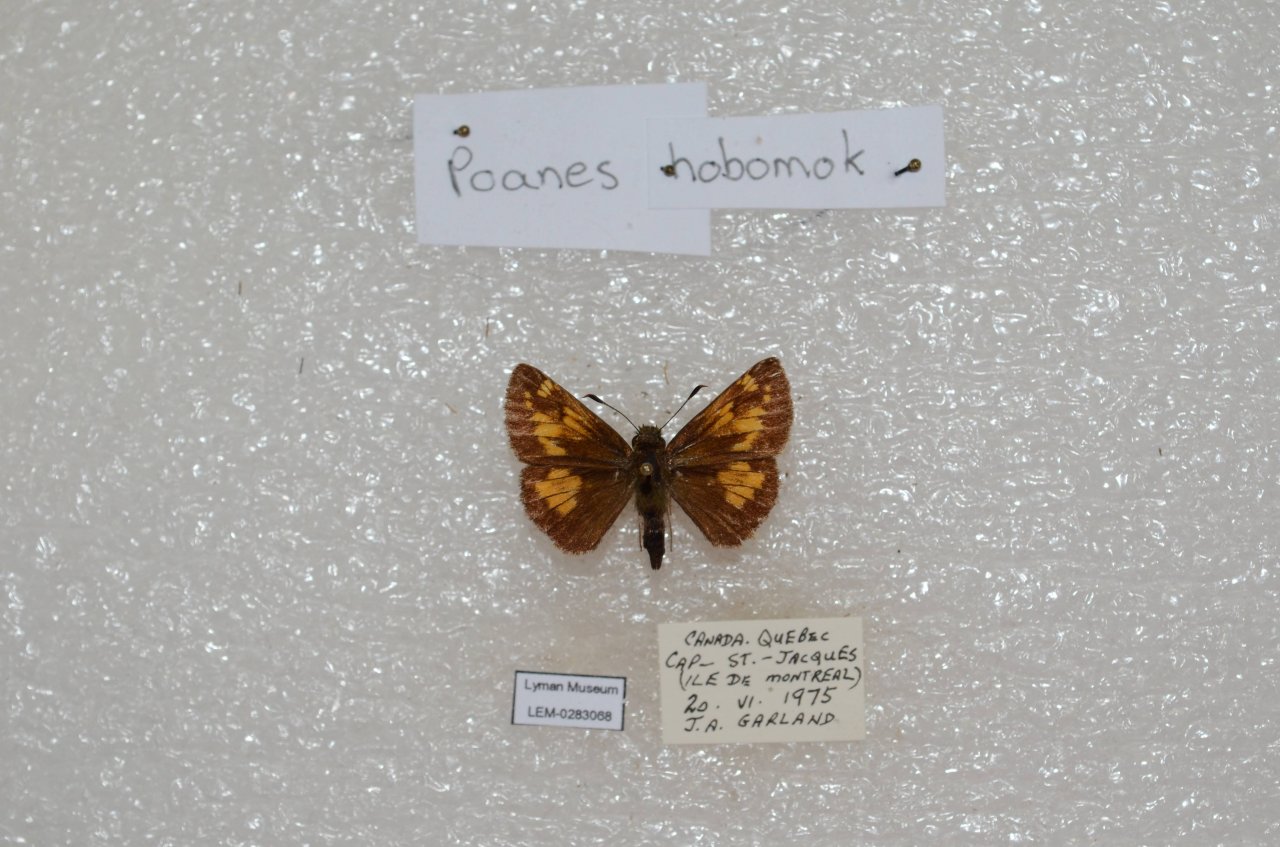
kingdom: Animalia
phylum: Arthropoda
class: Insecta
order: Lepidoptera
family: Hesperiidae
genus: Lon
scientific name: Lon hobomok
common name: Hobomok Skipper
